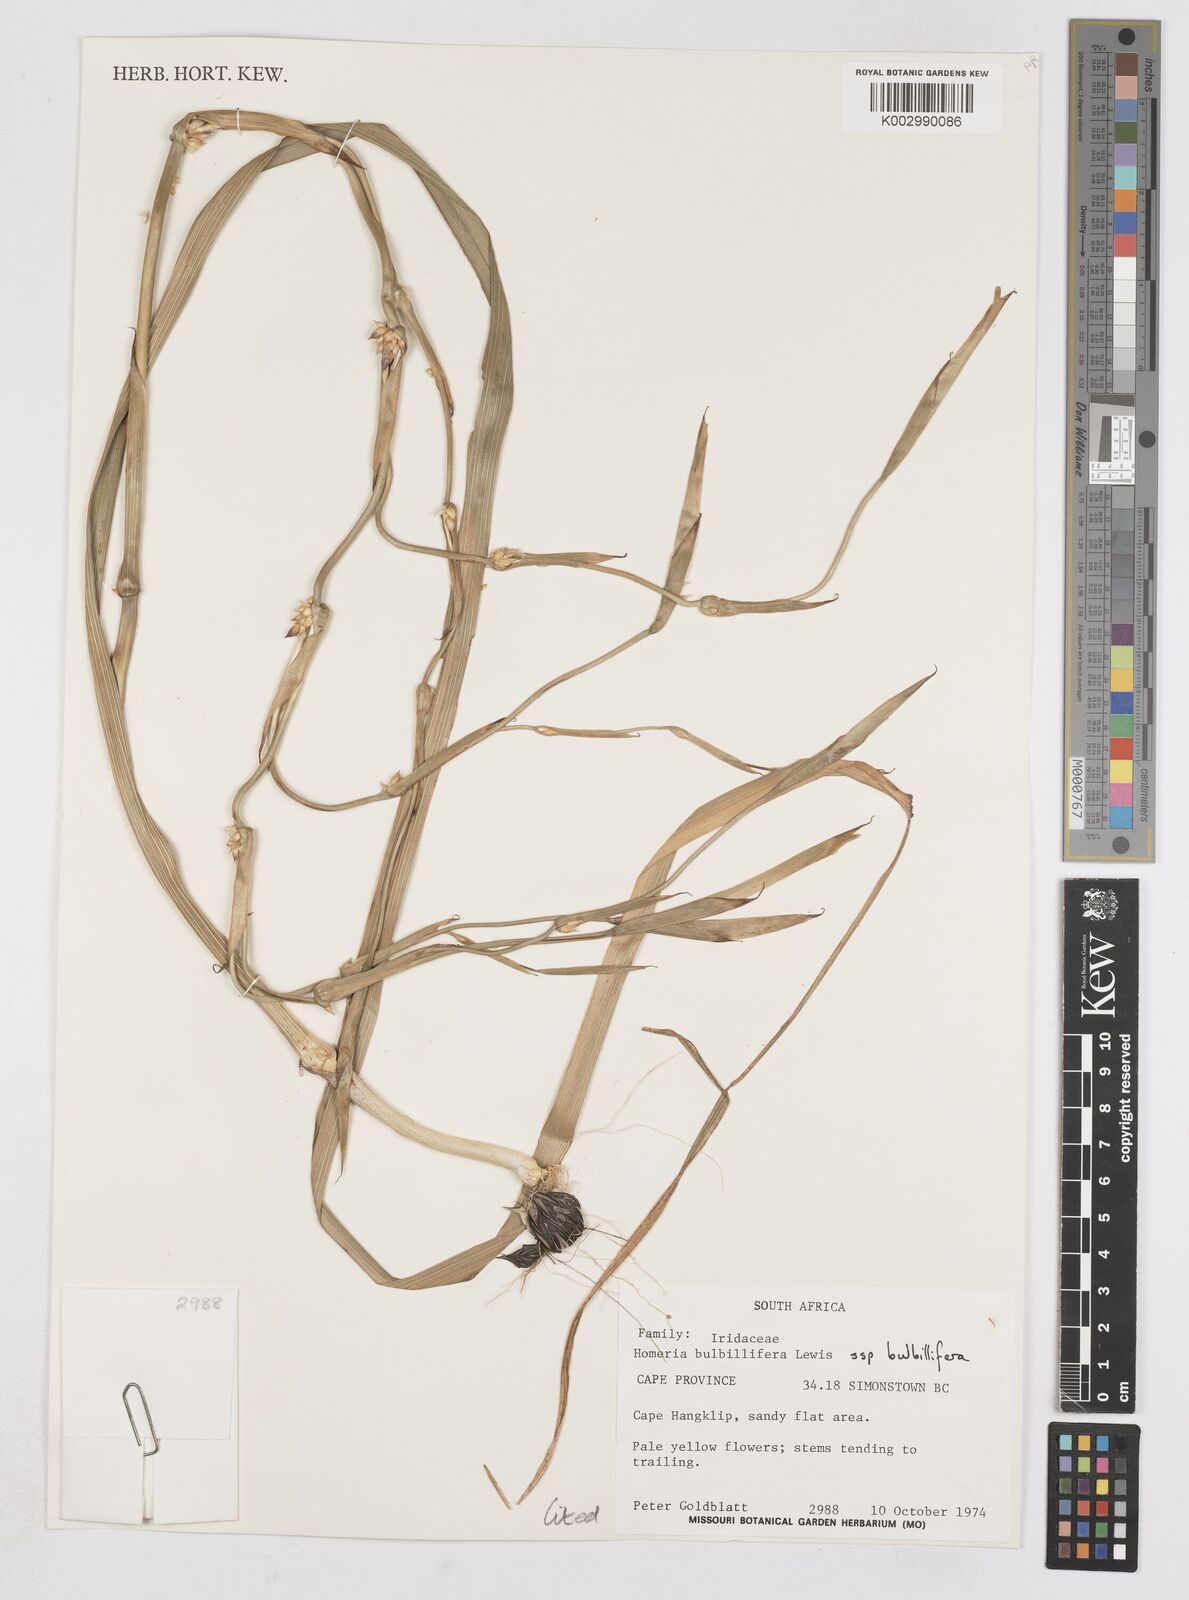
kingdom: Plantae
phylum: Tracheophyta
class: Liliopsida
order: Asparagales
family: Iridaceae
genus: Moraea
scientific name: Moraea bulbillifera
